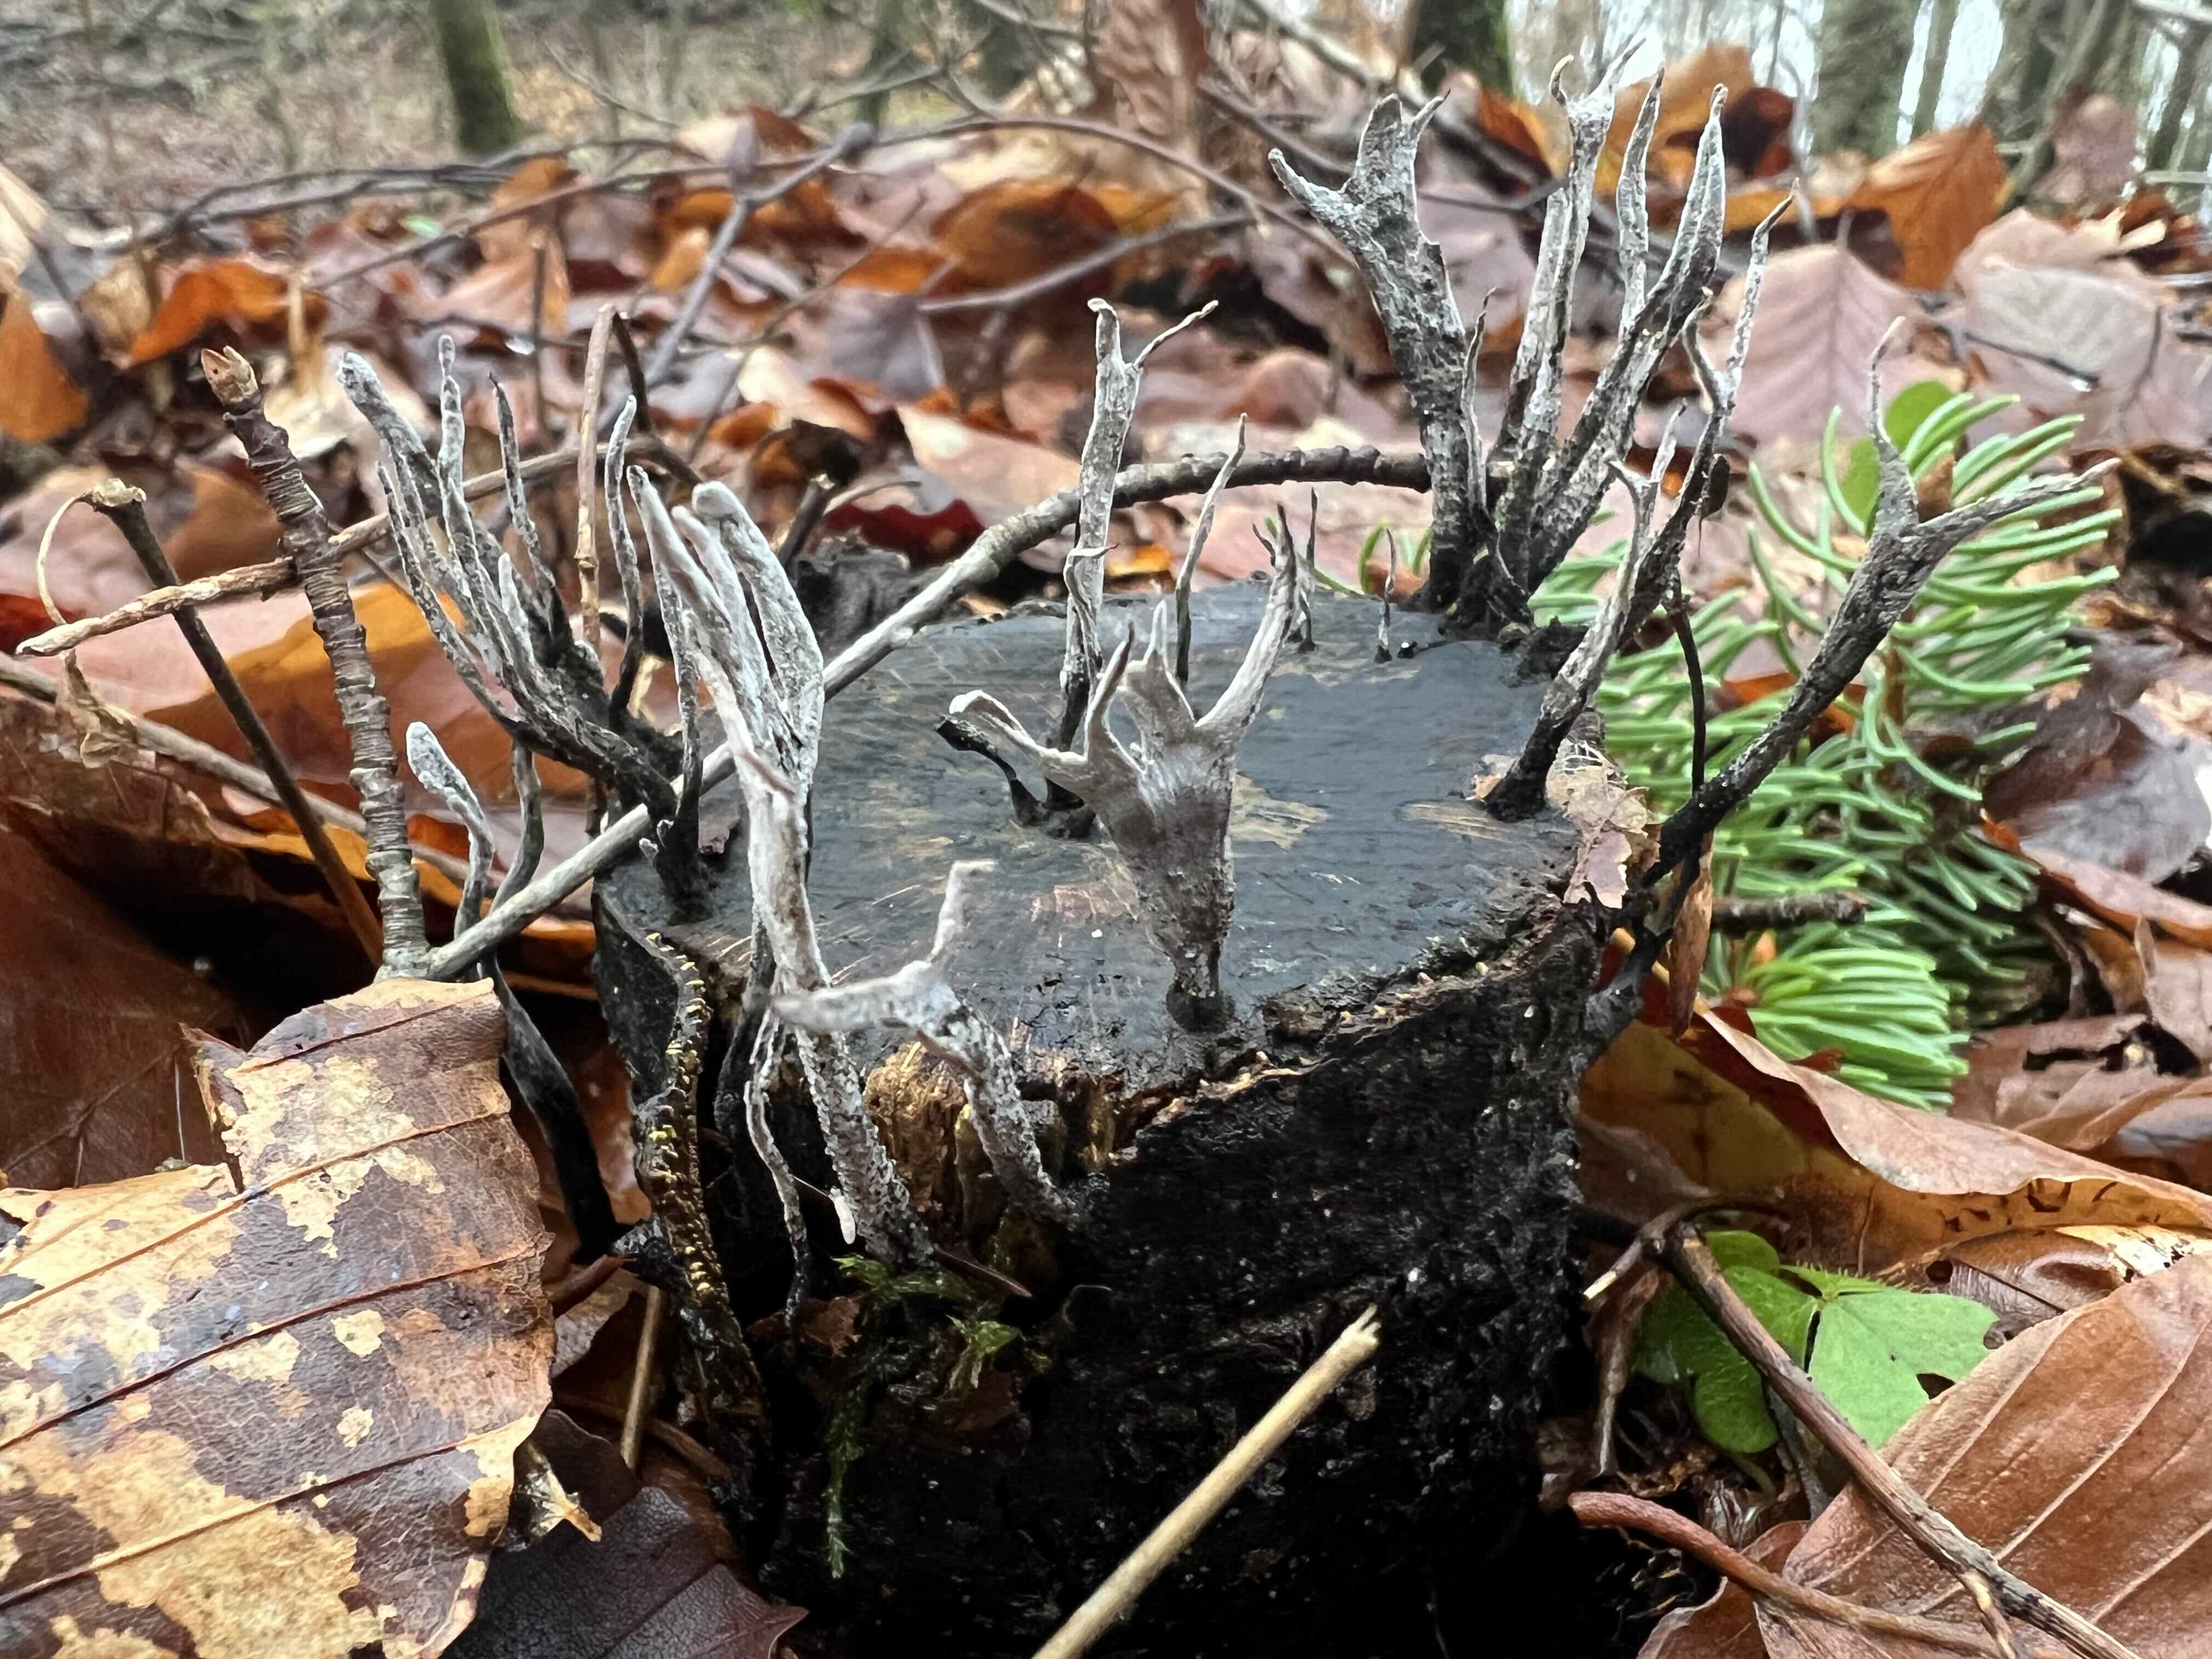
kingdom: Fungi
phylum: Ascomycota
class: Sordariomycetes
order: Xylariales
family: Xylariaceae
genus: Xylaria
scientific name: Xylaria hypoxylon
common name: grenet stødsvamp
